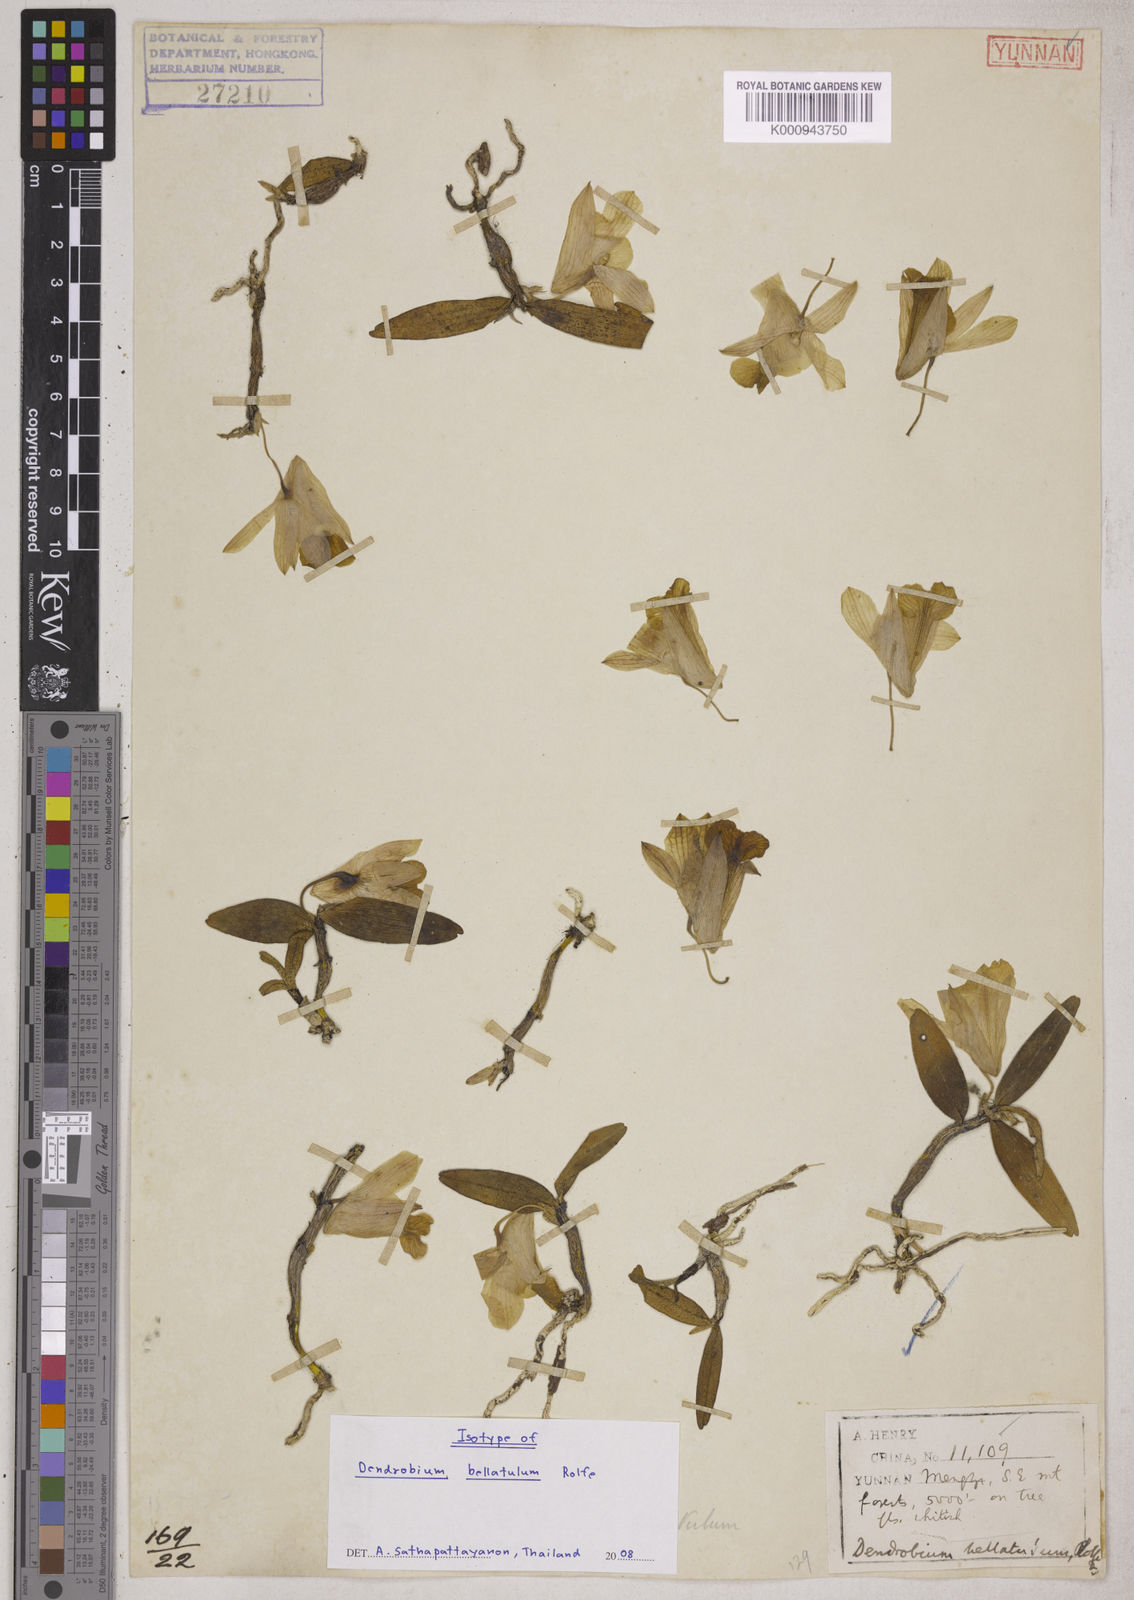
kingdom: Plantae
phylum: Tracheophyta
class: Liliopsida
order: Asparagales
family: Orchidaceae
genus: Dendrobium
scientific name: Dendrobium bellatulum
